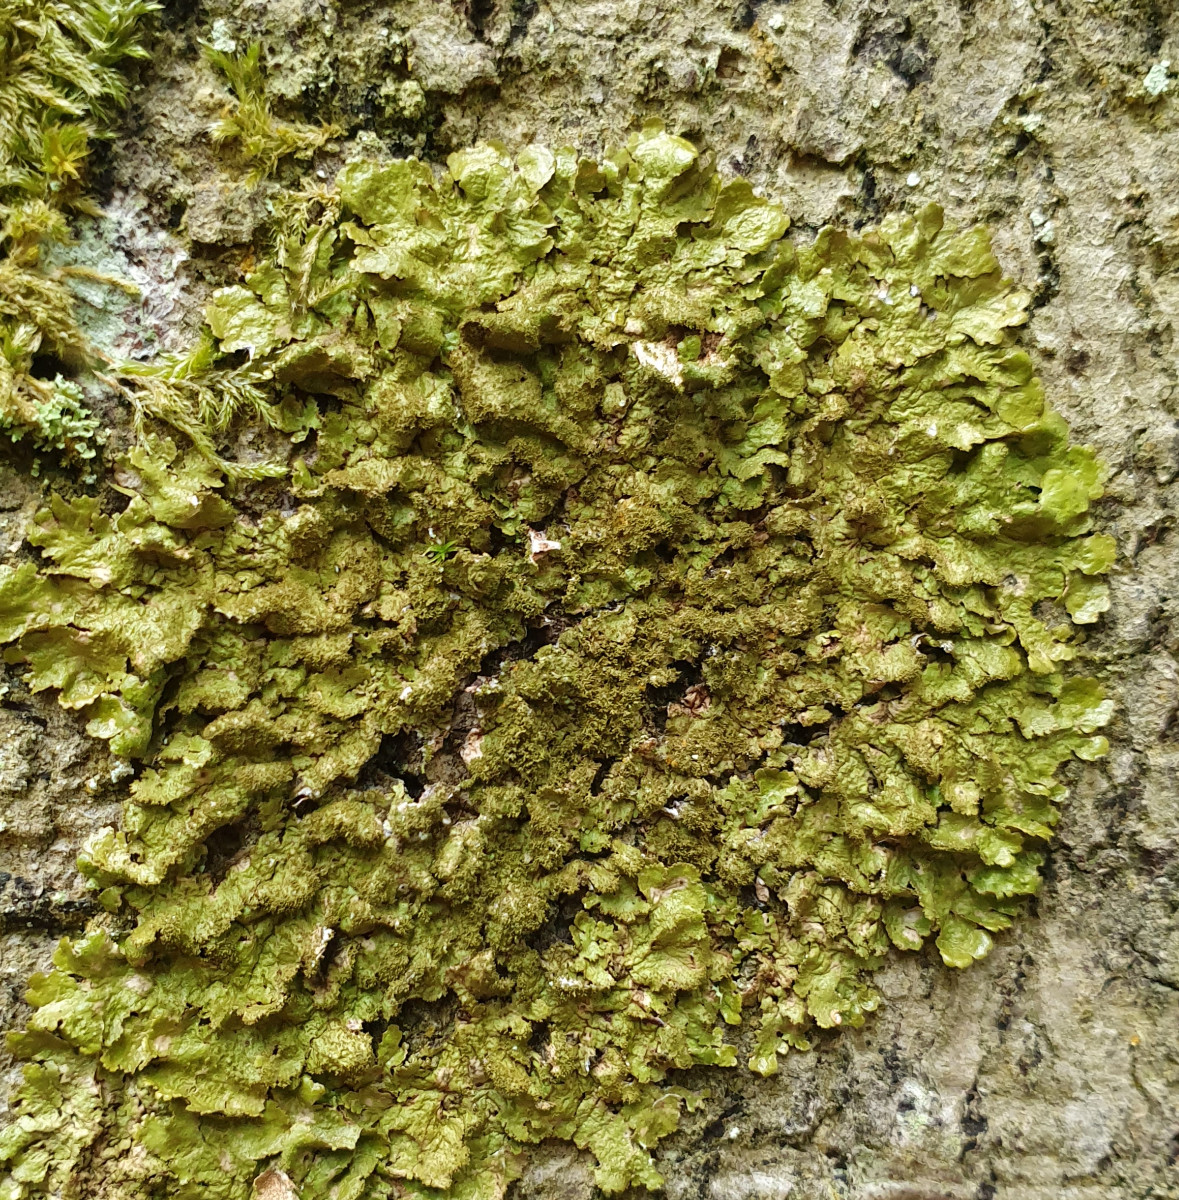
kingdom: Fungi
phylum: Ascomycota
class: Lecanoromycetes
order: Lecanorales
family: Parmeliaceae
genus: Melanelixia
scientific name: Melanelixia glabratula
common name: glinsende skållav
